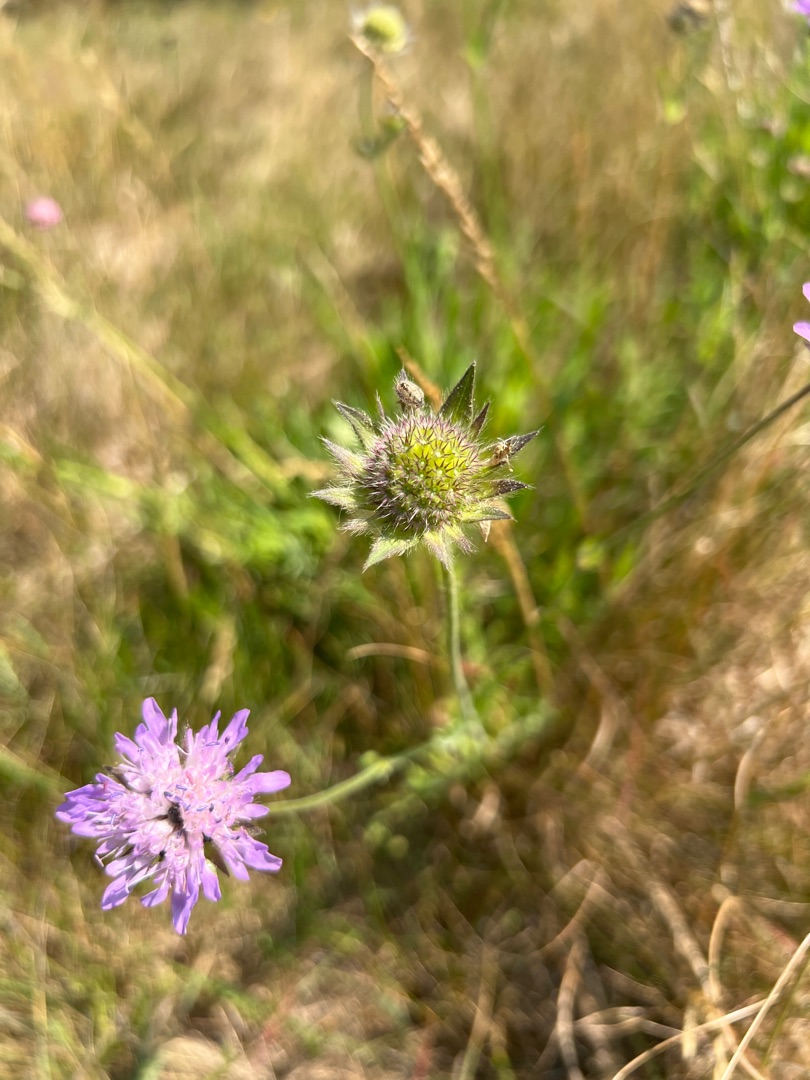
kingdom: Plantae
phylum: Tracheophyta
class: Magnoliopsida
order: Dipsacales
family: Caprifoliaceae
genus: Knautia
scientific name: Knautia arvensis
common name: Blåhat
